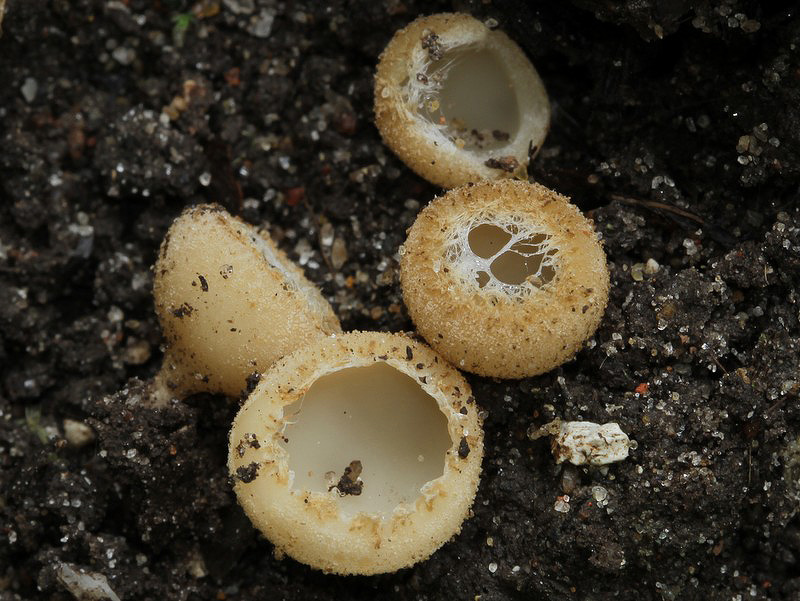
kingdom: Fungi
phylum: Ascomycota
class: Pezizomycetes
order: Pezizales
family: Pyronemataceae
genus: Tarzetta
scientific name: Tarzetta cupularis
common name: gulbrun pokalbæger
